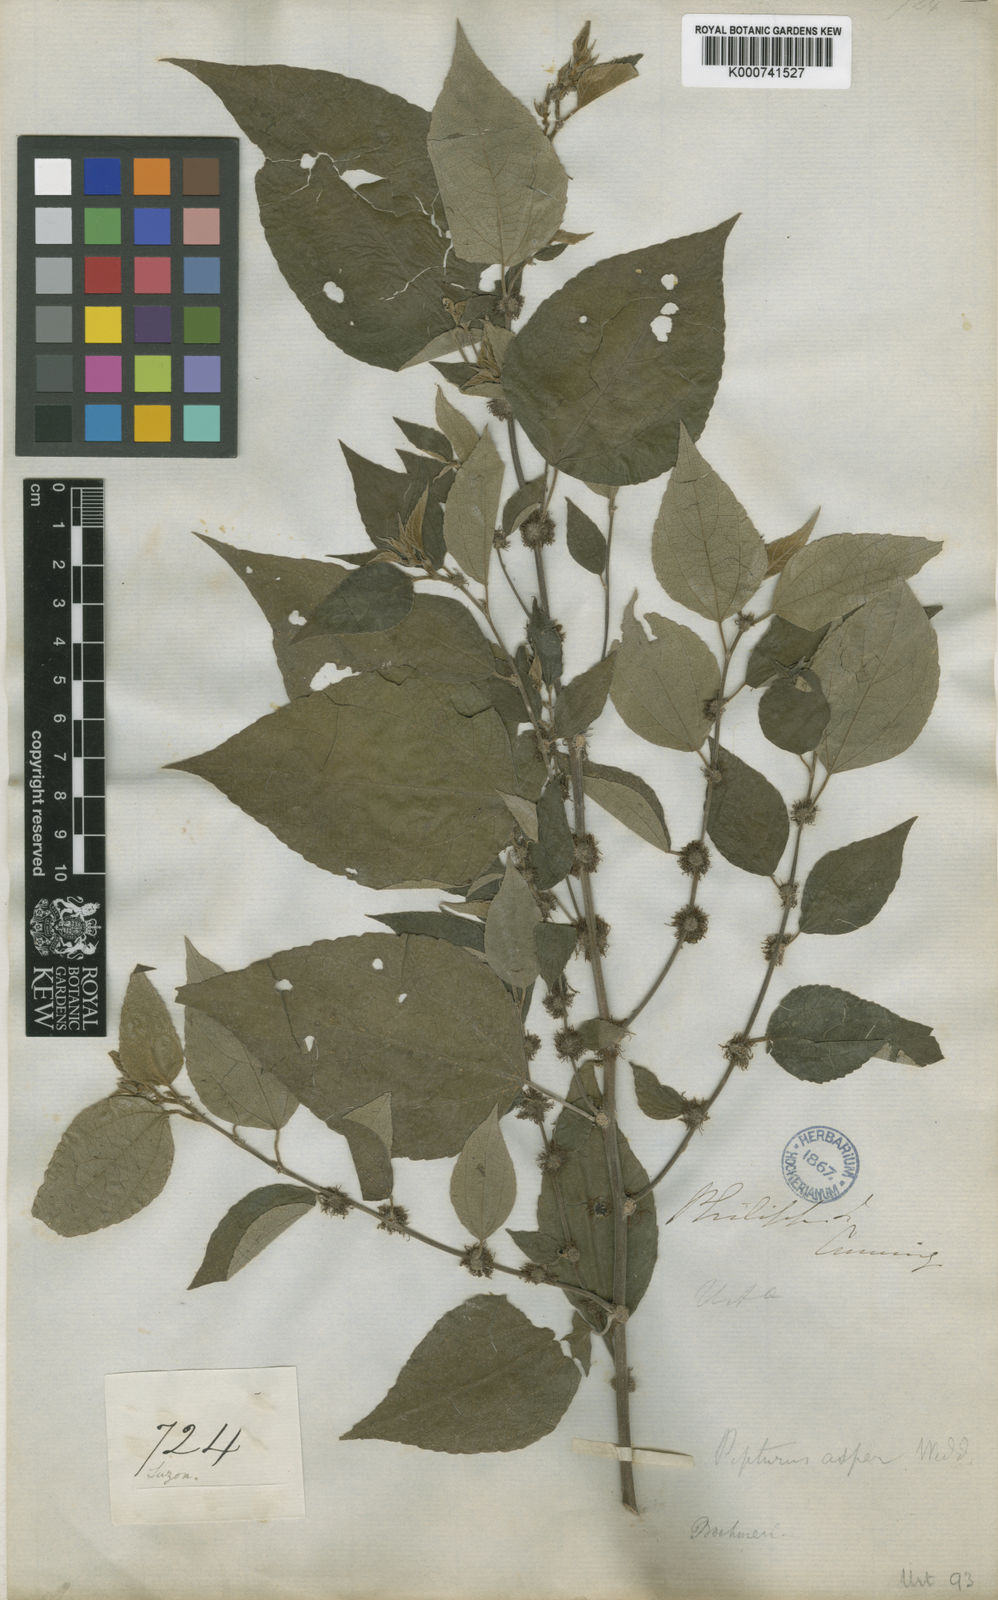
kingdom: Plantae
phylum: Tracheophyta
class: Magnoliopsida
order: Rosales
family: Urticaceae
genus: Pipturus
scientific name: Pipturus arborescens
